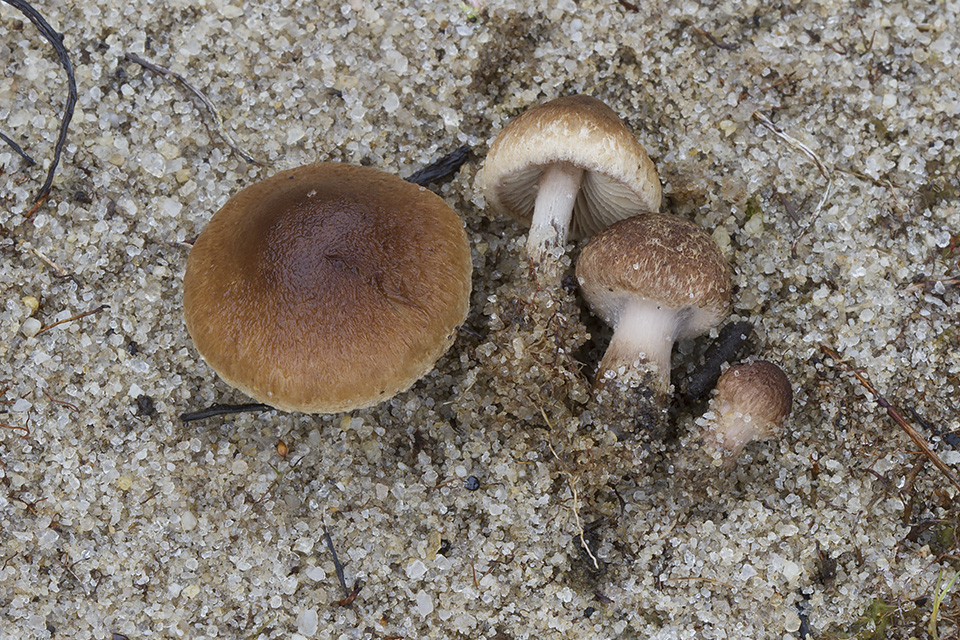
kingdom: Fungi
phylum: Basidiomycota
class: Agaricomycetes
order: Agaricales
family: Inocybaceae
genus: Inocybe
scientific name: Inocybe lacera
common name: laset trævlhat
